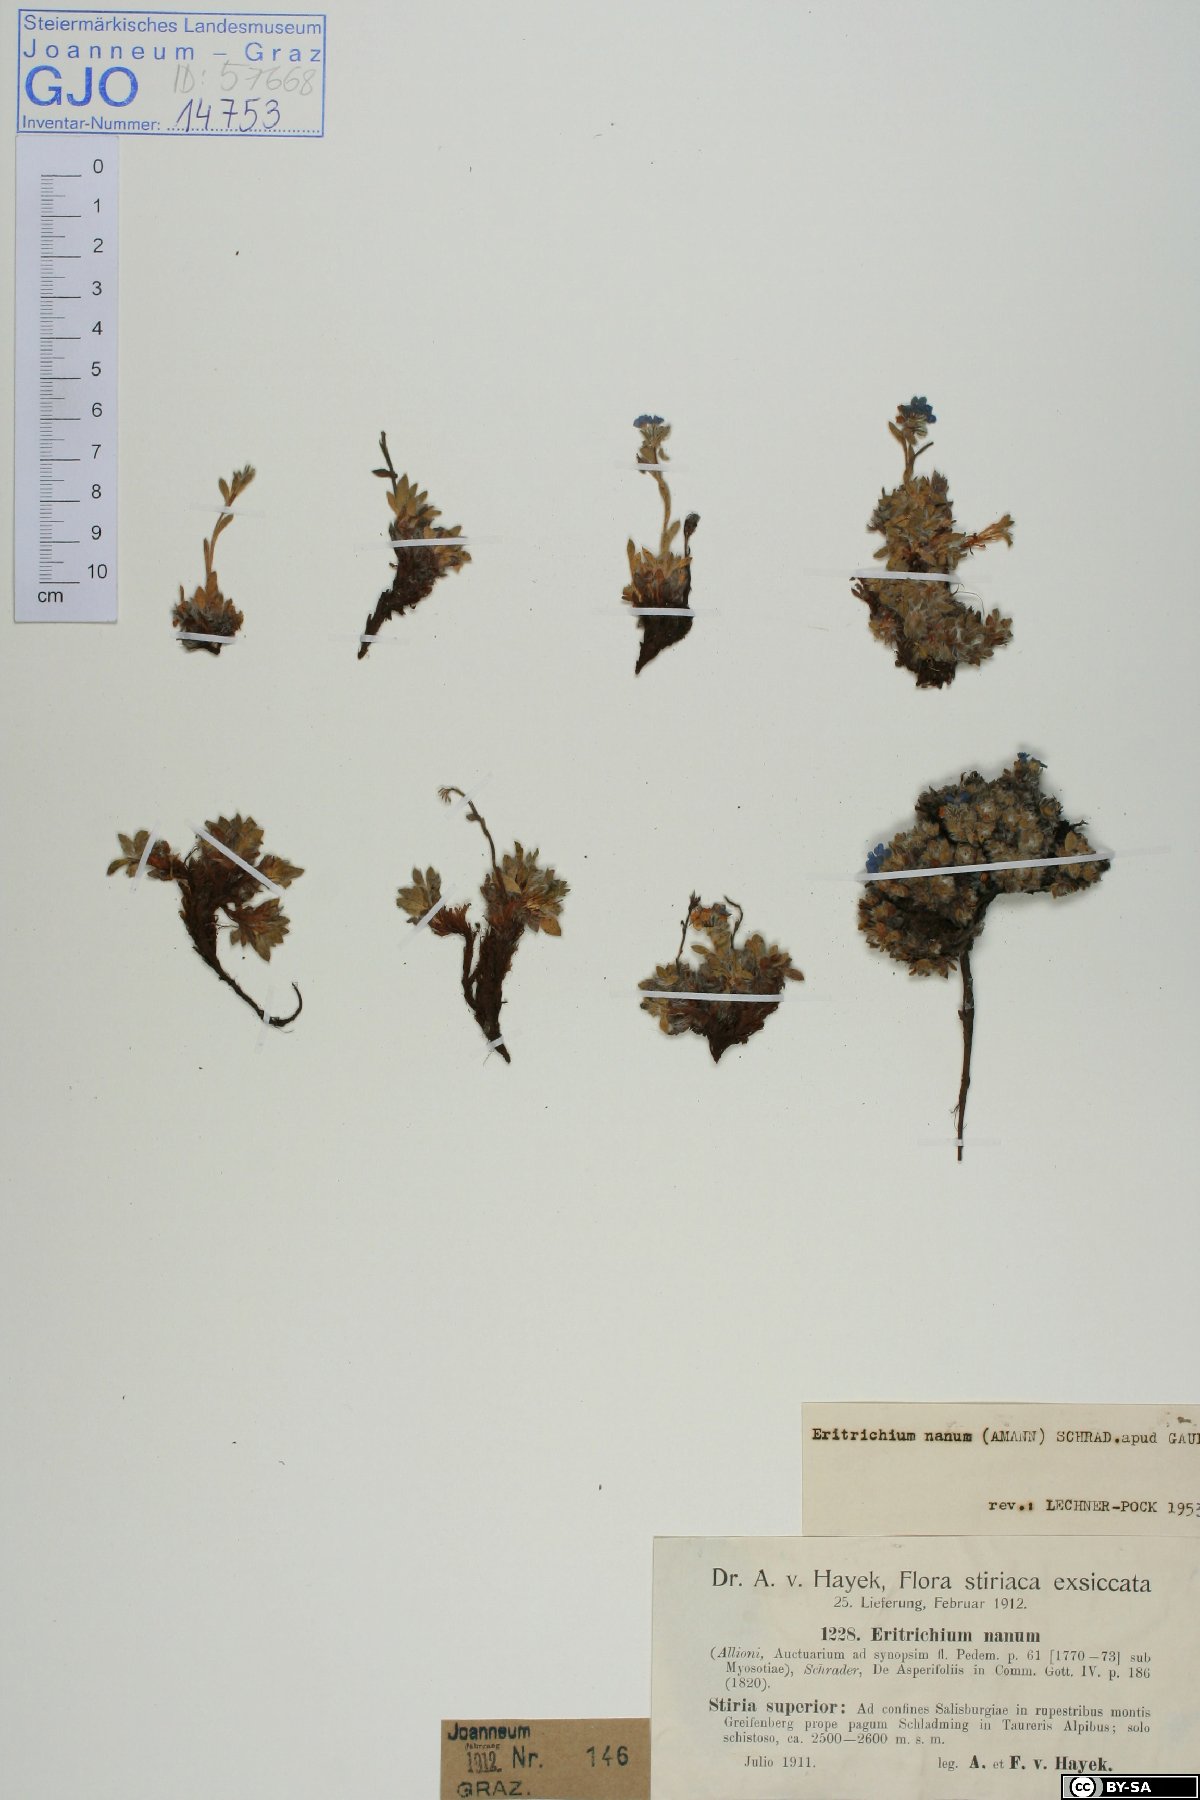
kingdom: Plantae
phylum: Tracheophyta
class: Magnoliopsida
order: Boraginales
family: Boraginaceae
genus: Eritrichium
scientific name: Eritrichium nanum
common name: King-of-the-alps
